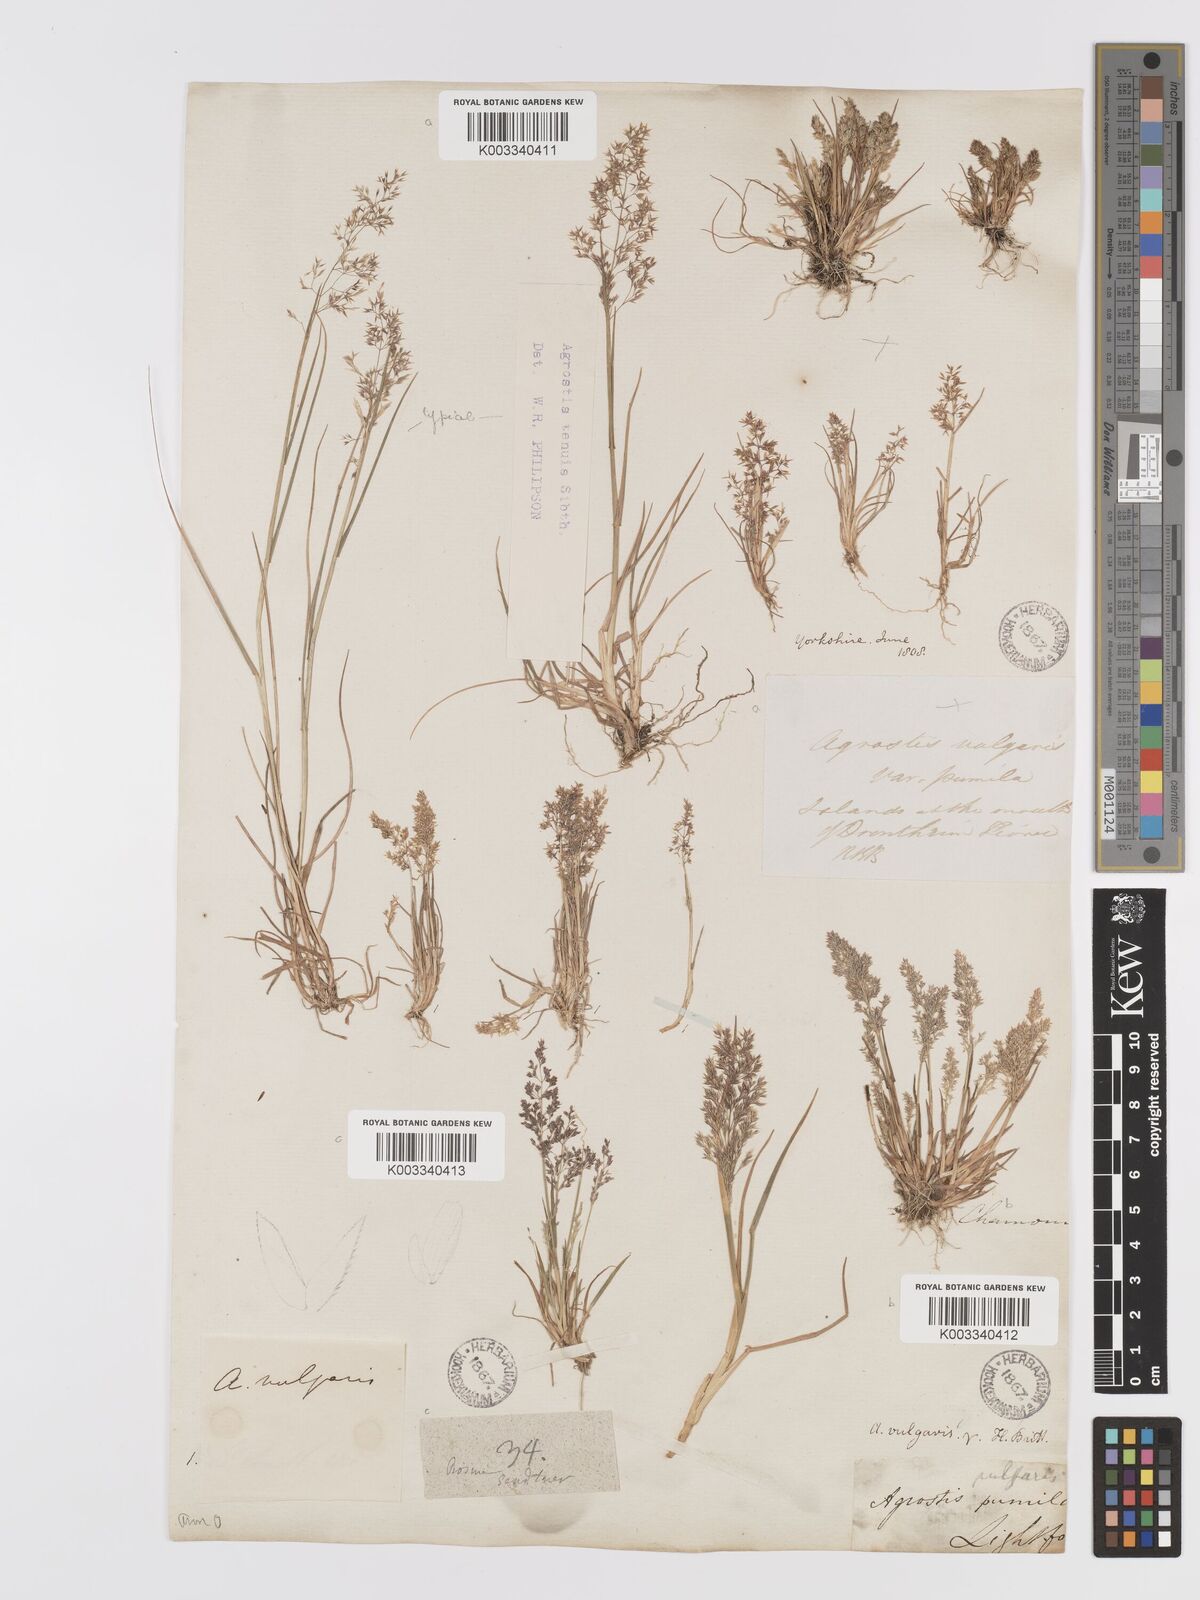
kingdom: Plantae
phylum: Tracheophyta
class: Liliopsida
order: Poales
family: Poaceae
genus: Agrostis
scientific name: Agrostis capillaris
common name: Colonial bentgrass
